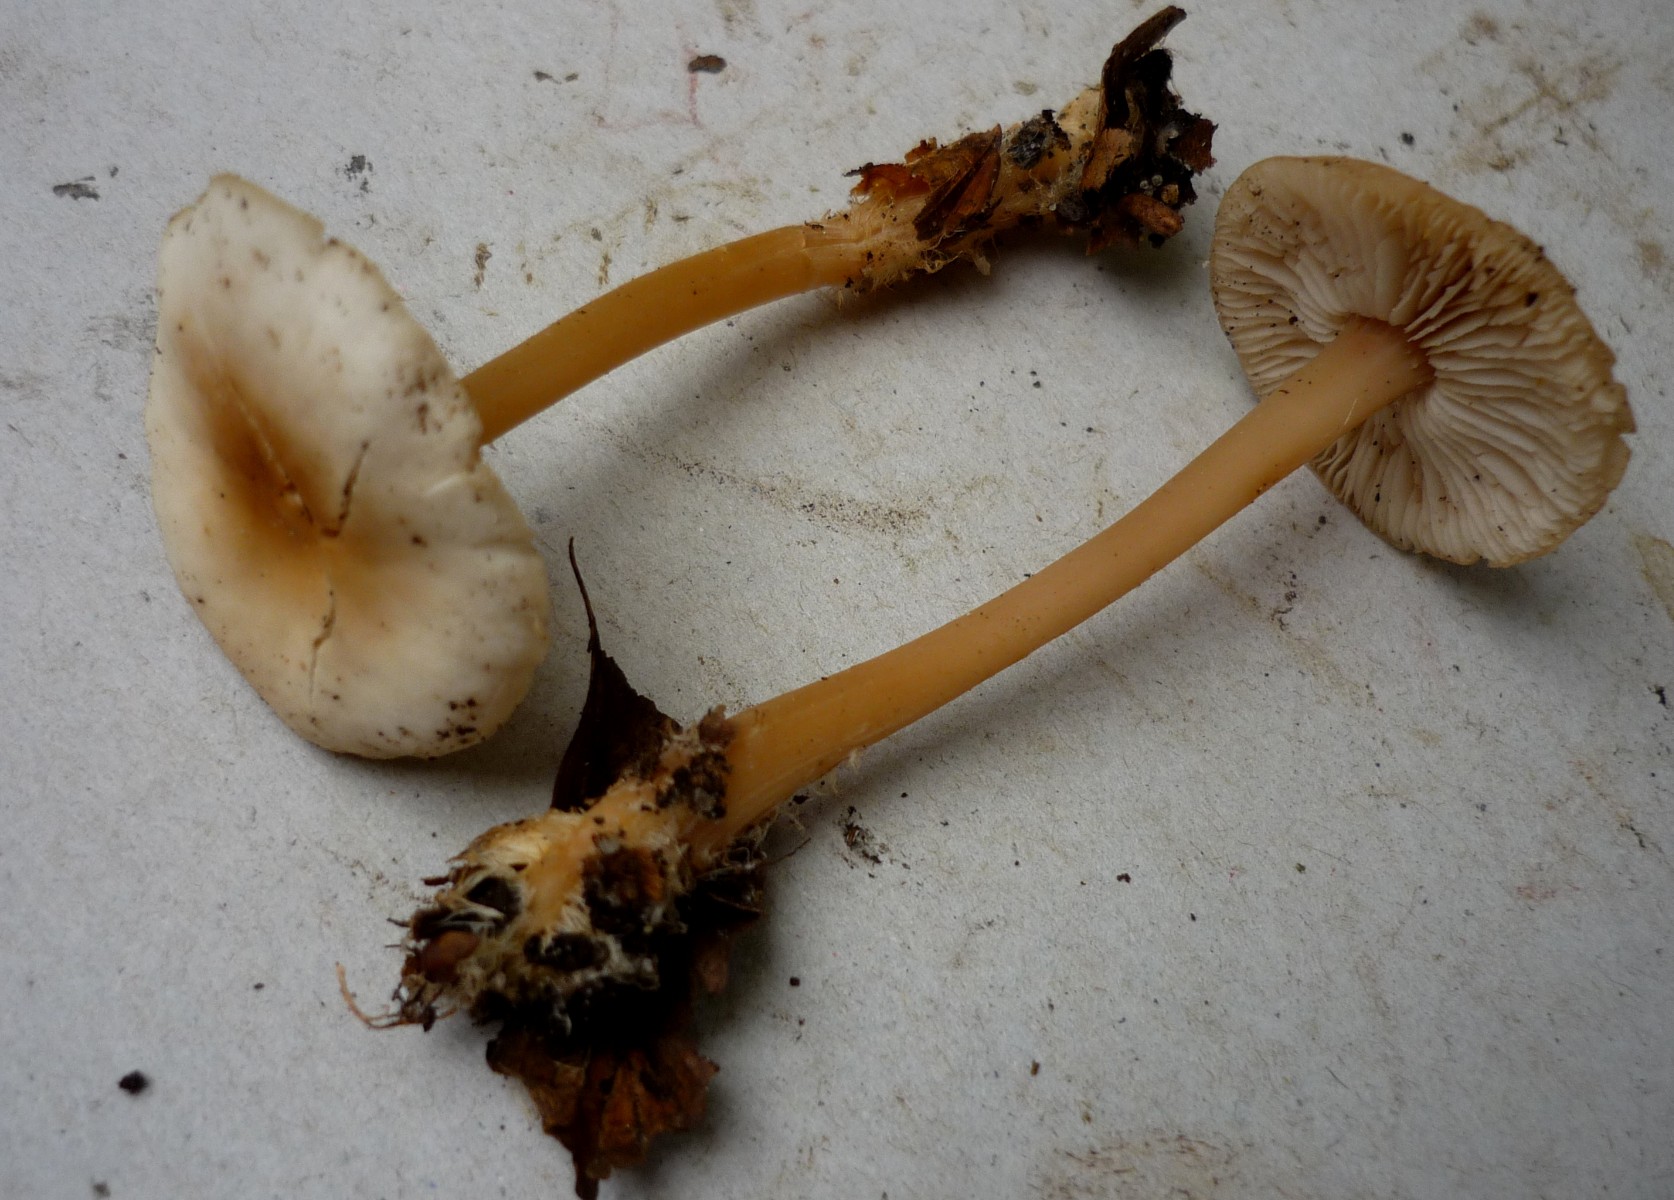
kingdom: Fungi
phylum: Basidiomycota
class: Agaricomycetes
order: Agaricales
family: Omphalotaceae
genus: Gymnopus
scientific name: Gymnopus aquosus
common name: bleg fladhat
